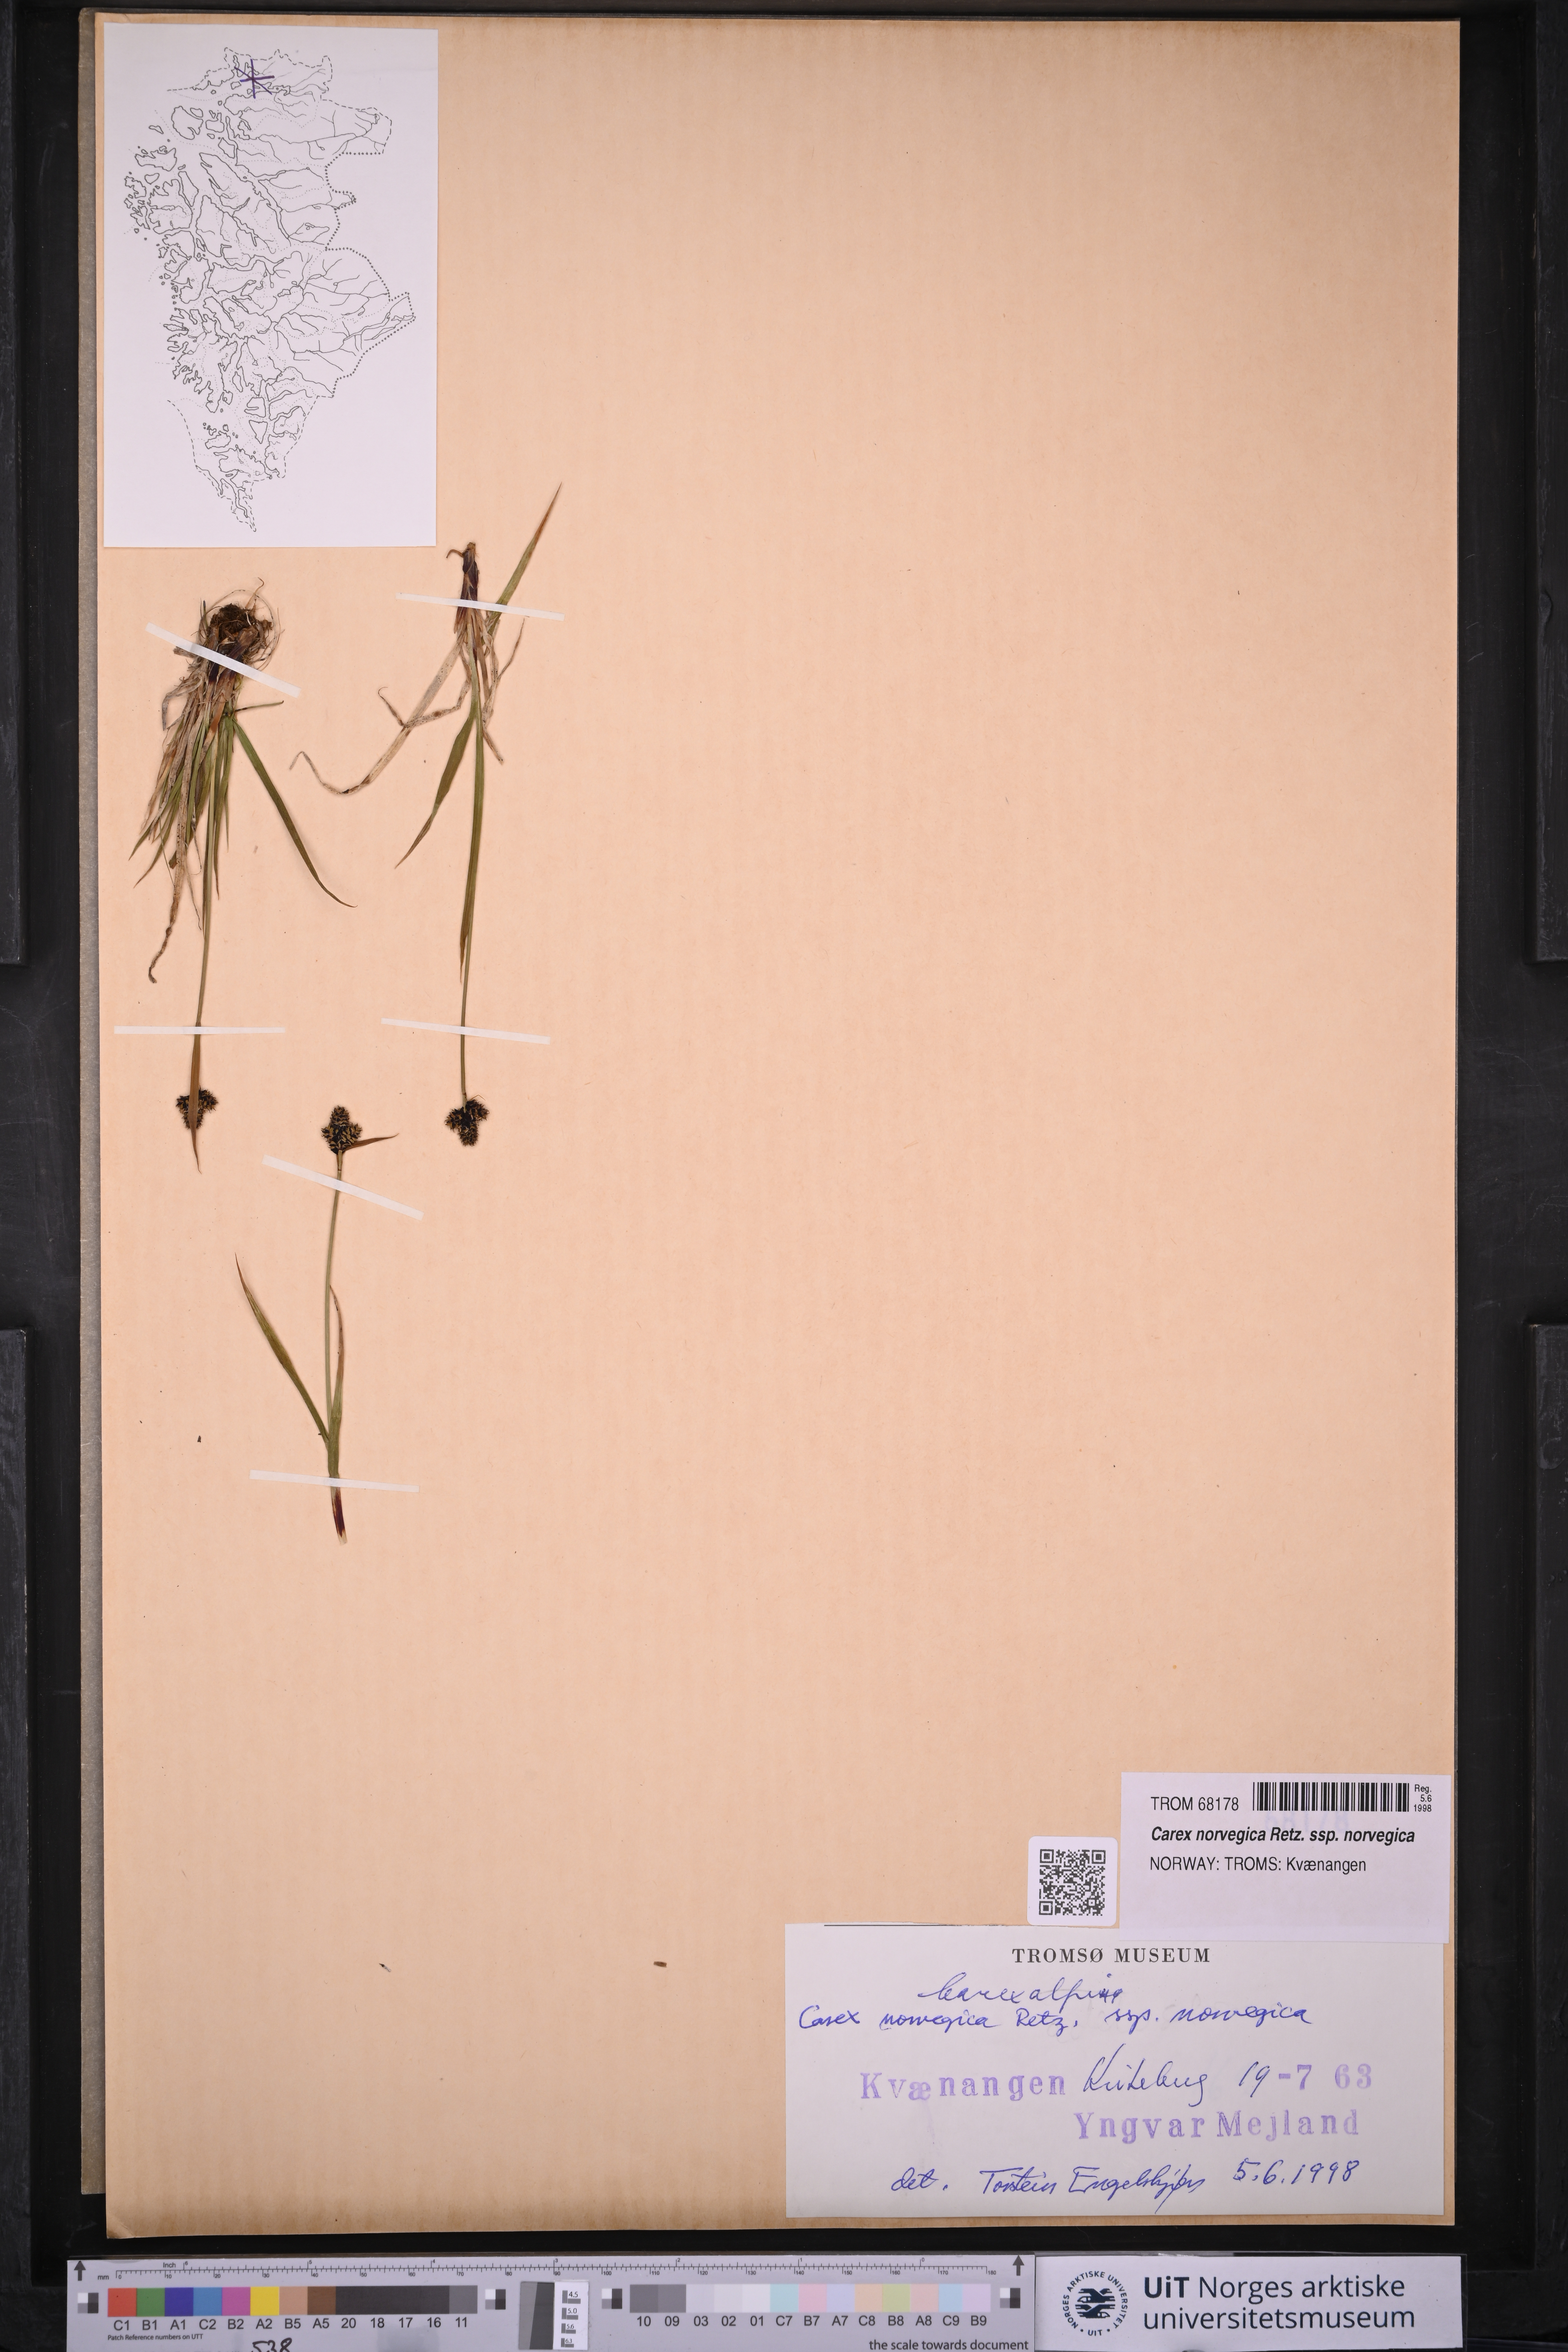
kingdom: Plantae
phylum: Tracheophyta
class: Liliopsida
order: Poales
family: Cyperaceae
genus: Carex
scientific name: Carex norvegica
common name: Close-headed alpine-sedge
